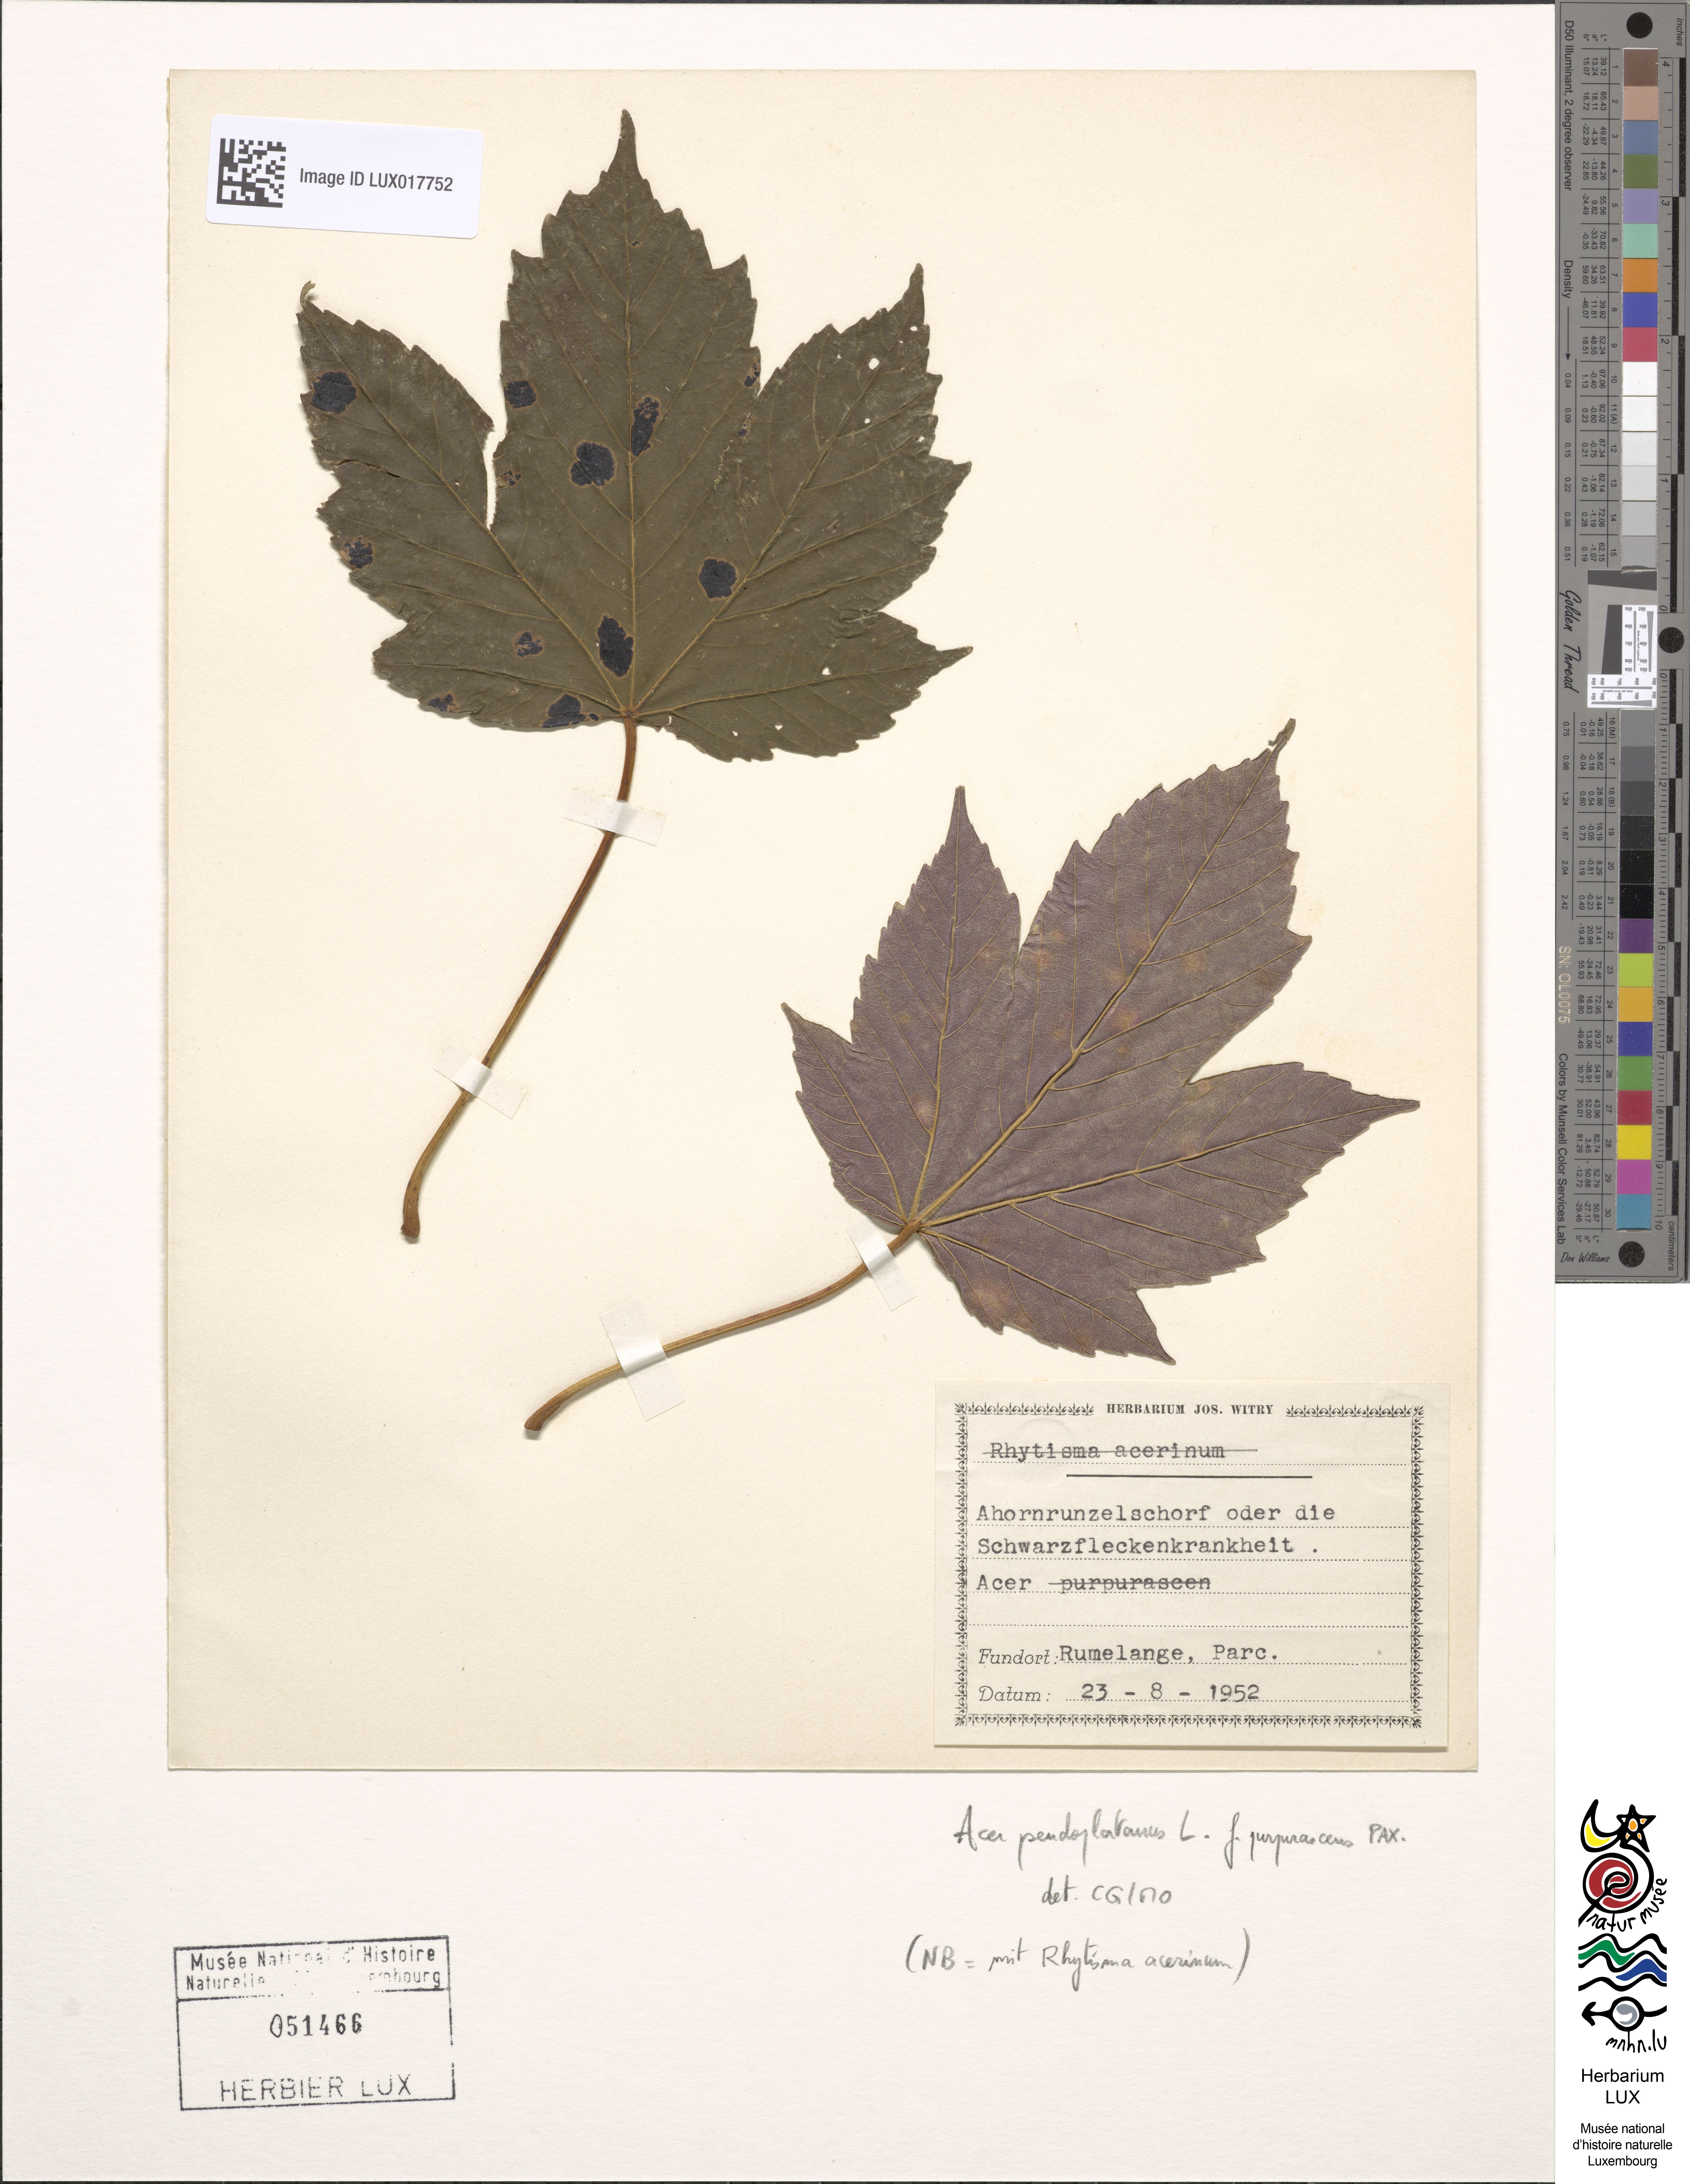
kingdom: Plantae
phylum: Tracheophyta
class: Magnoliopsida
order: Sapindales
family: Sapindaceae
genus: Acer
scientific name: Acer pseudoplatanus
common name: Sycamore
